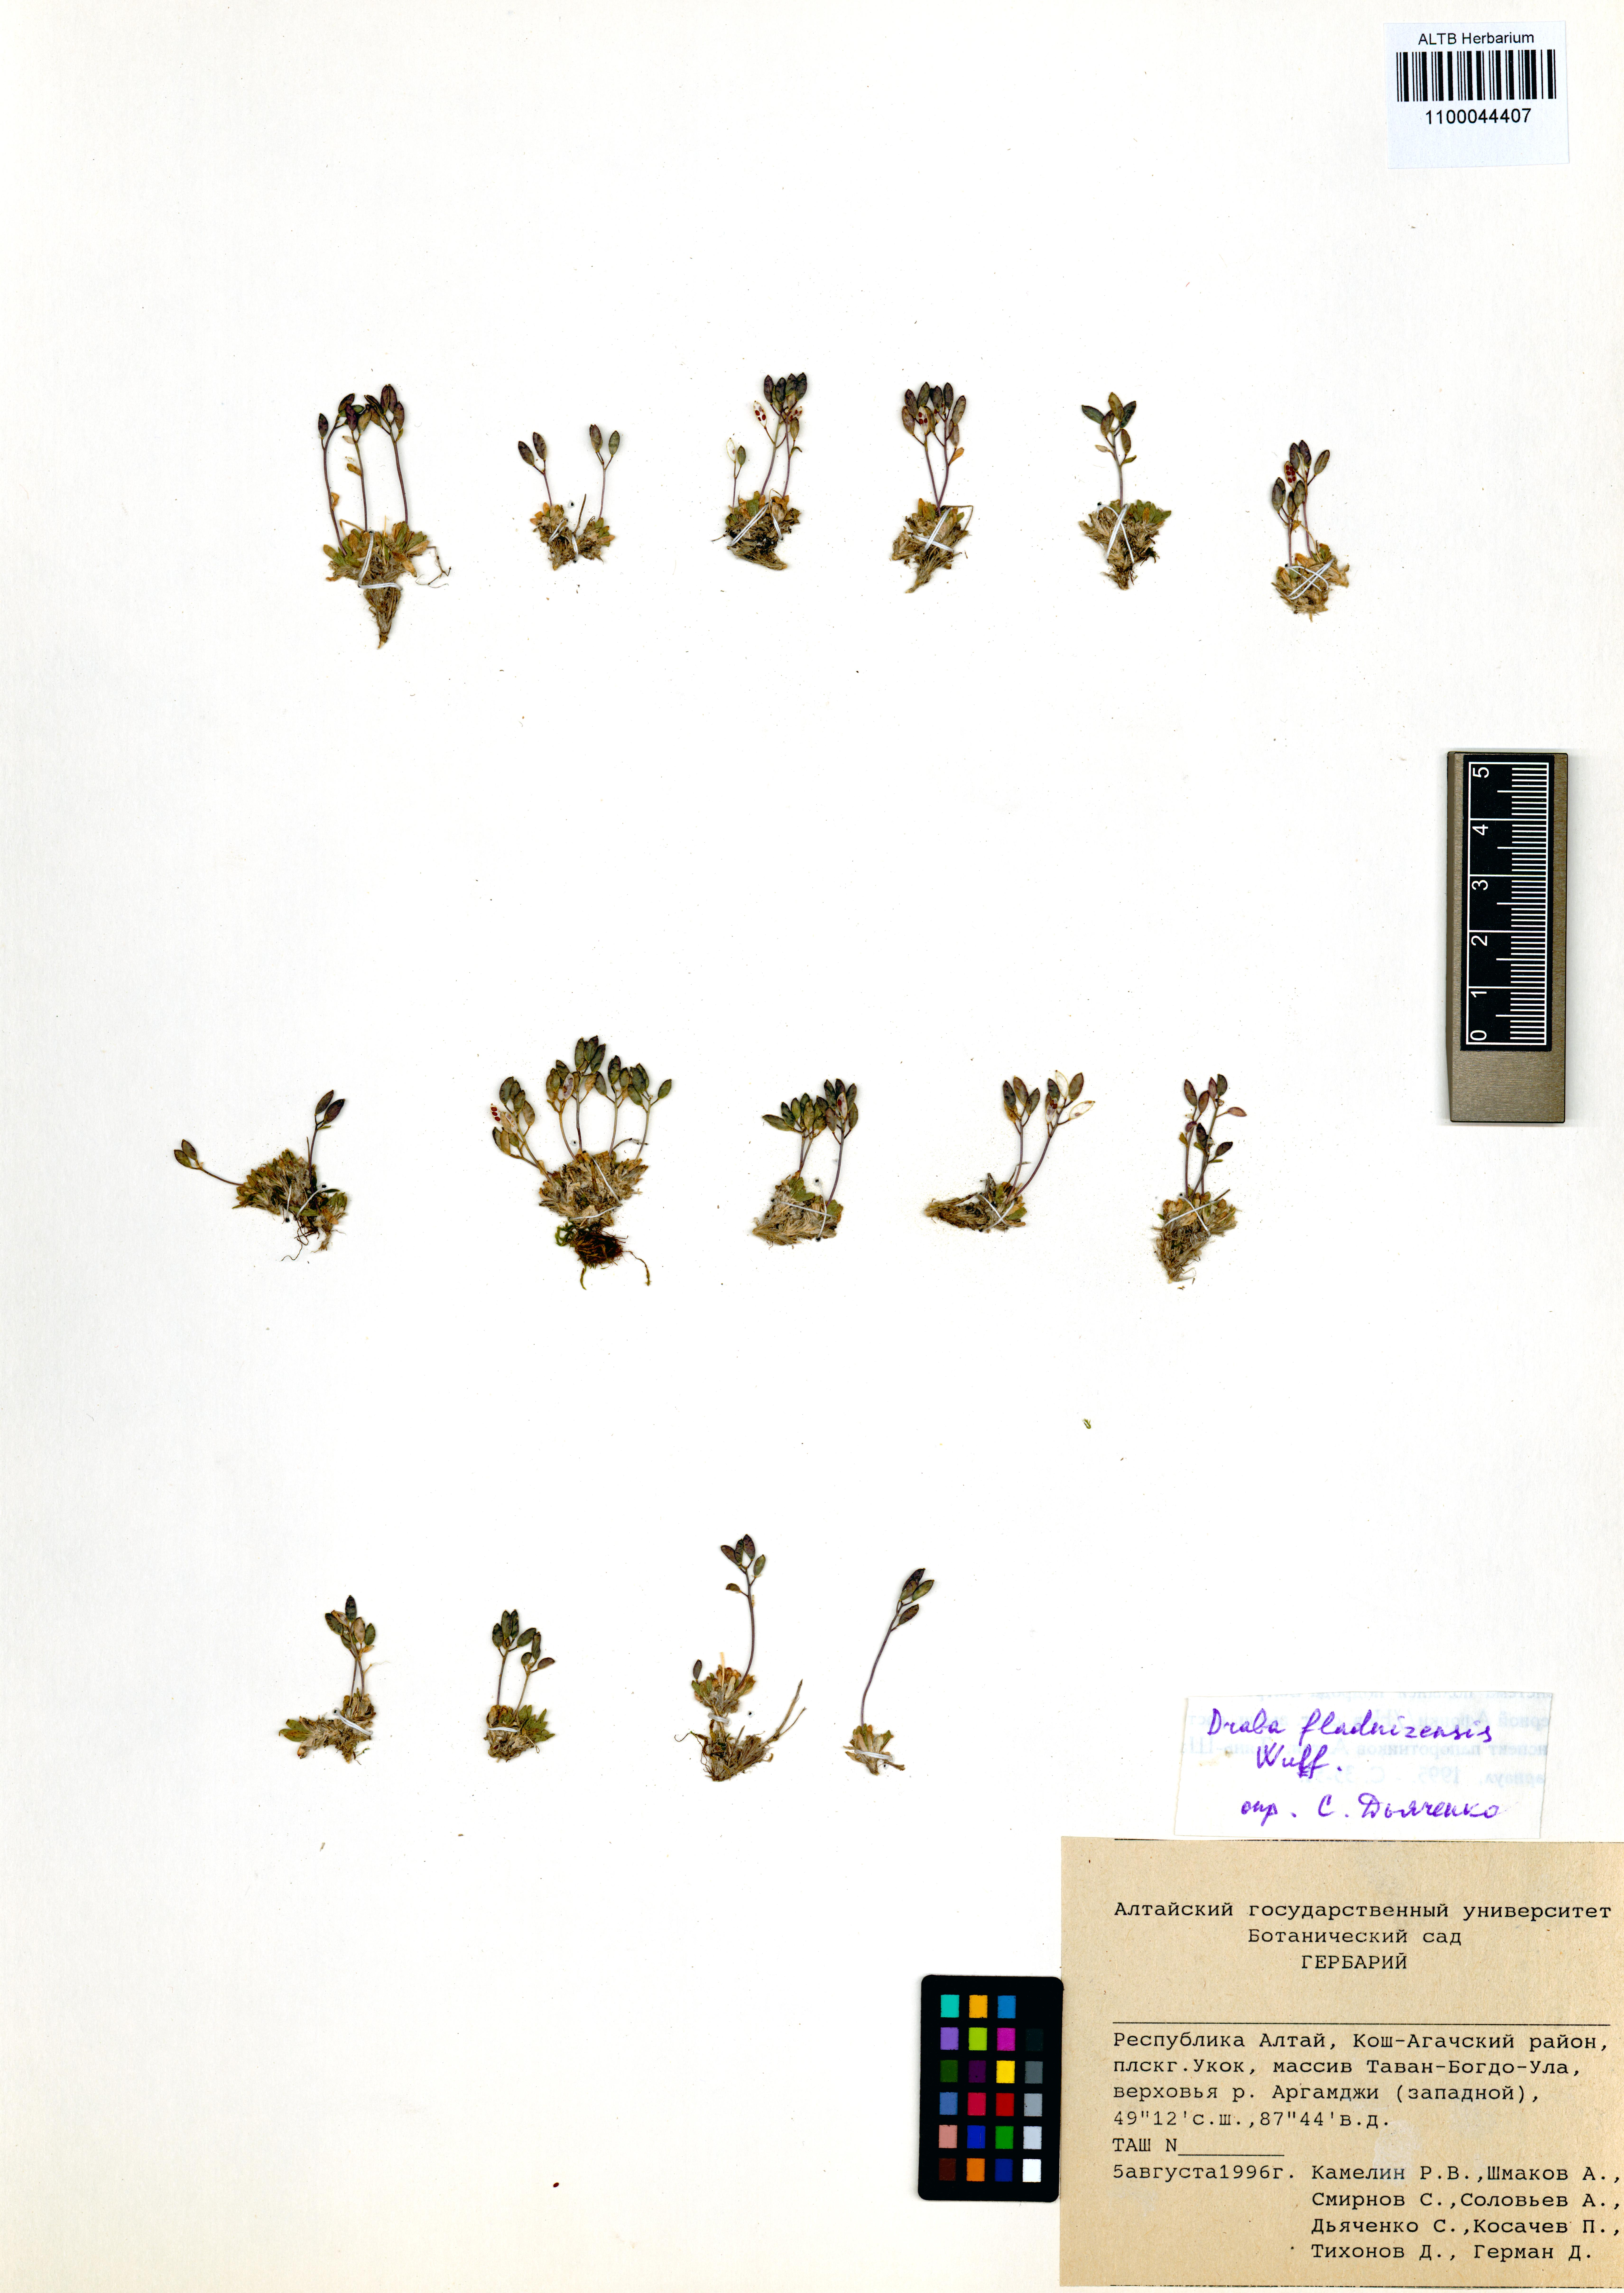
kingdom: Plantae
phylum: Tracheophyta
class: Magnoliopsida
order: Brassicales
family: Brassicaceae
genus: Draba
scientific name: Draba fladnizensis
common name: Austrian draba
